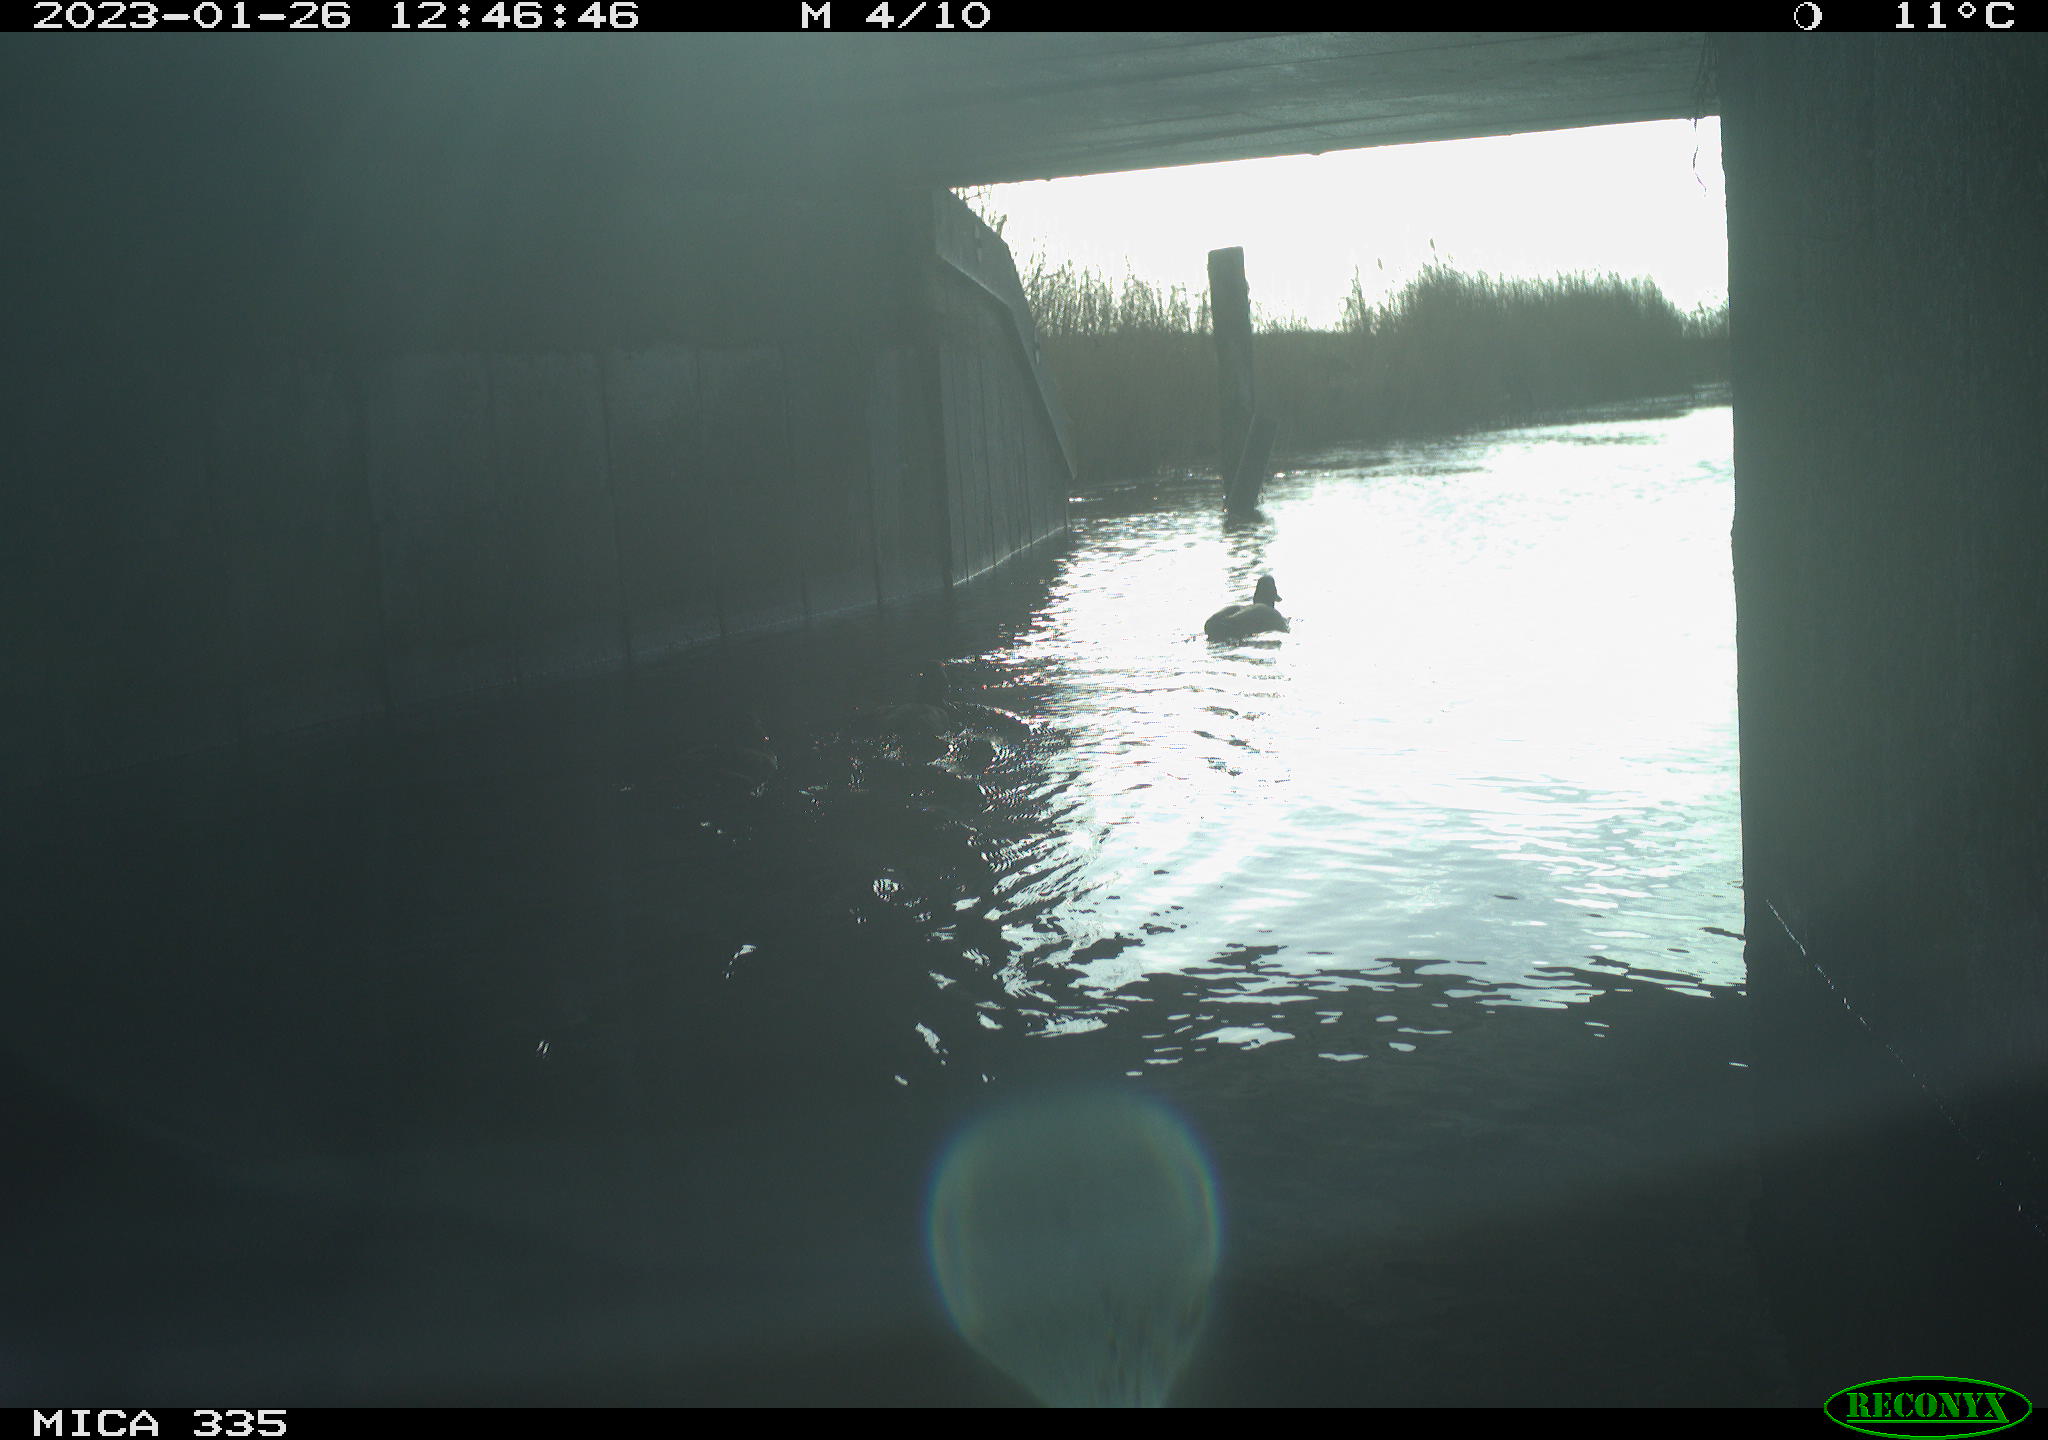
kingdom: Animalia
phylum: Chordata
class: Aves
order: Gruiformes
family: Rallidae
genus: Fulica
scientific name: Fulica atra
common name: Eurasian coot
